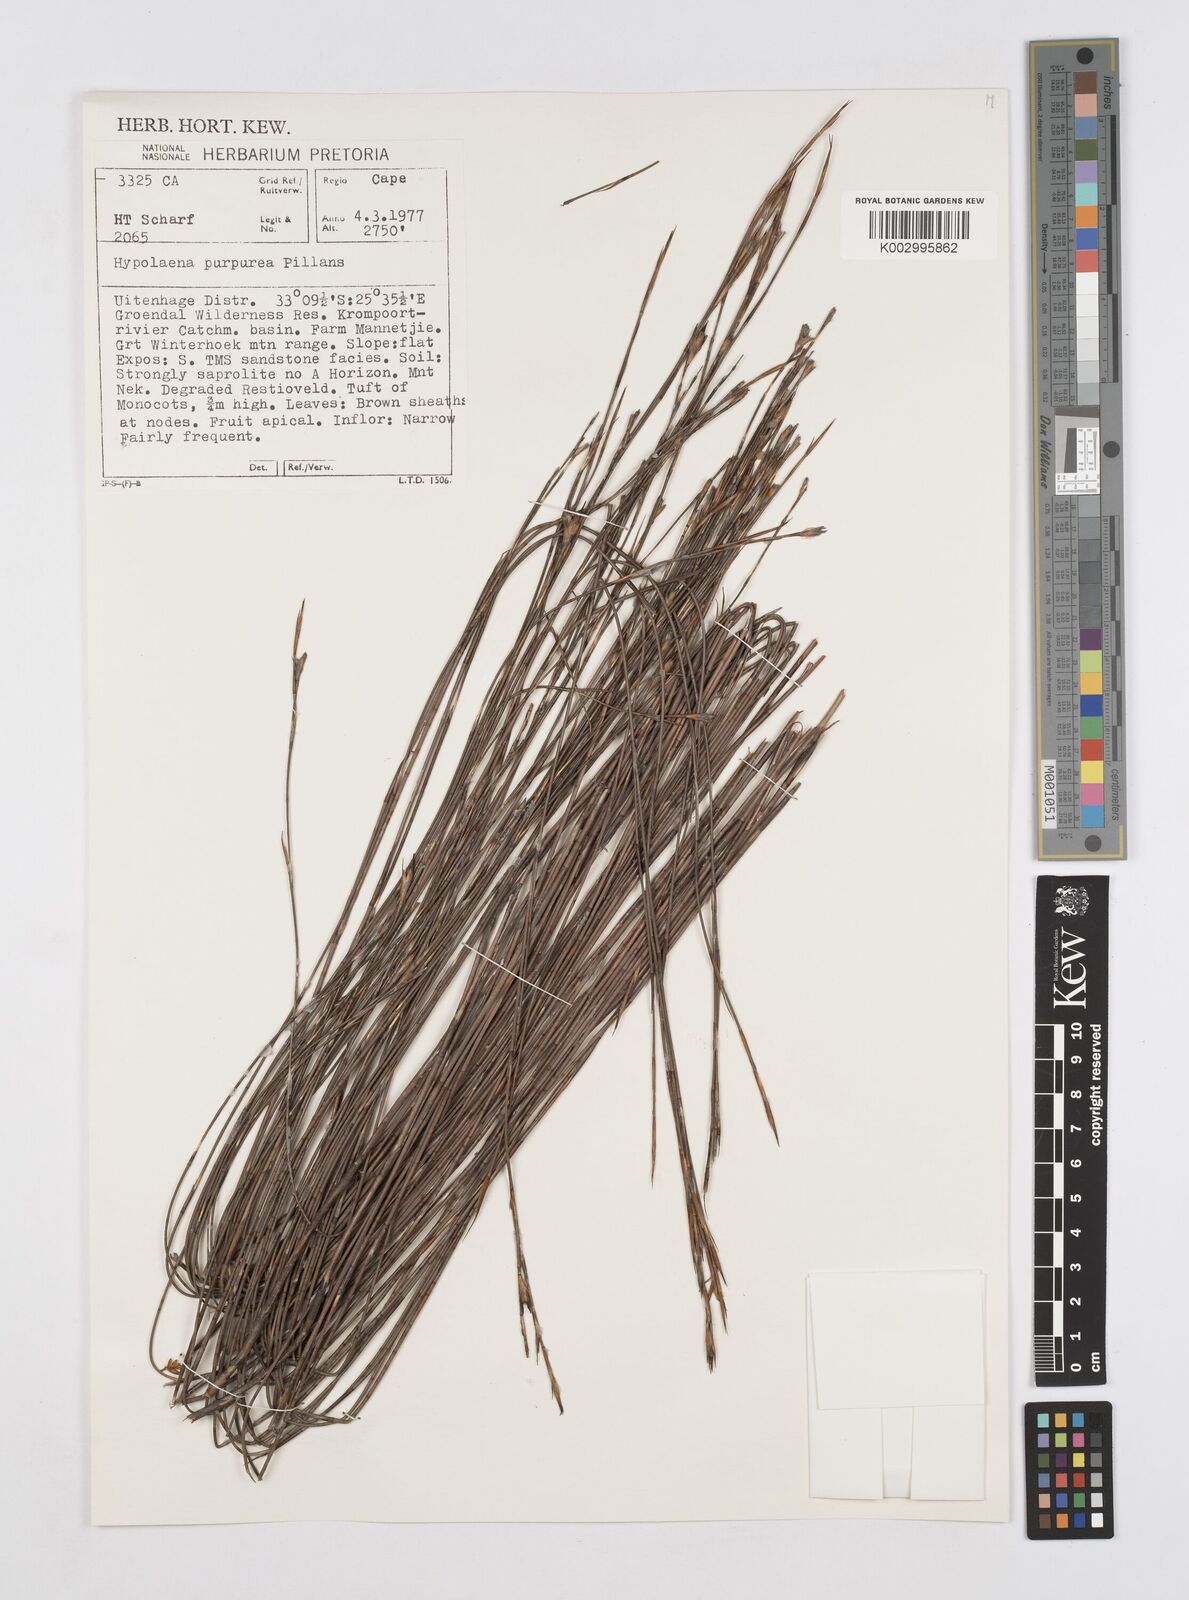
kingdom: Plantae
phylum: Tracheophyta
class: Liliopsida
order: Poales
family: Restionaceae
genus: Mastersiella
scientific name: Mastersiella purpurea
